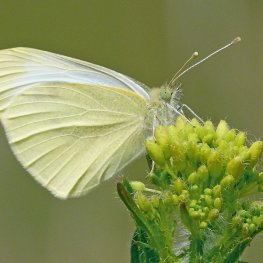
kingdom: Animalia
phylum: Arthropoda
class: Insecta
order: Lepidoptera
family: Pieridae
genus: Pieris
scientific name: Pieris rapae
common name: Cabbage White
